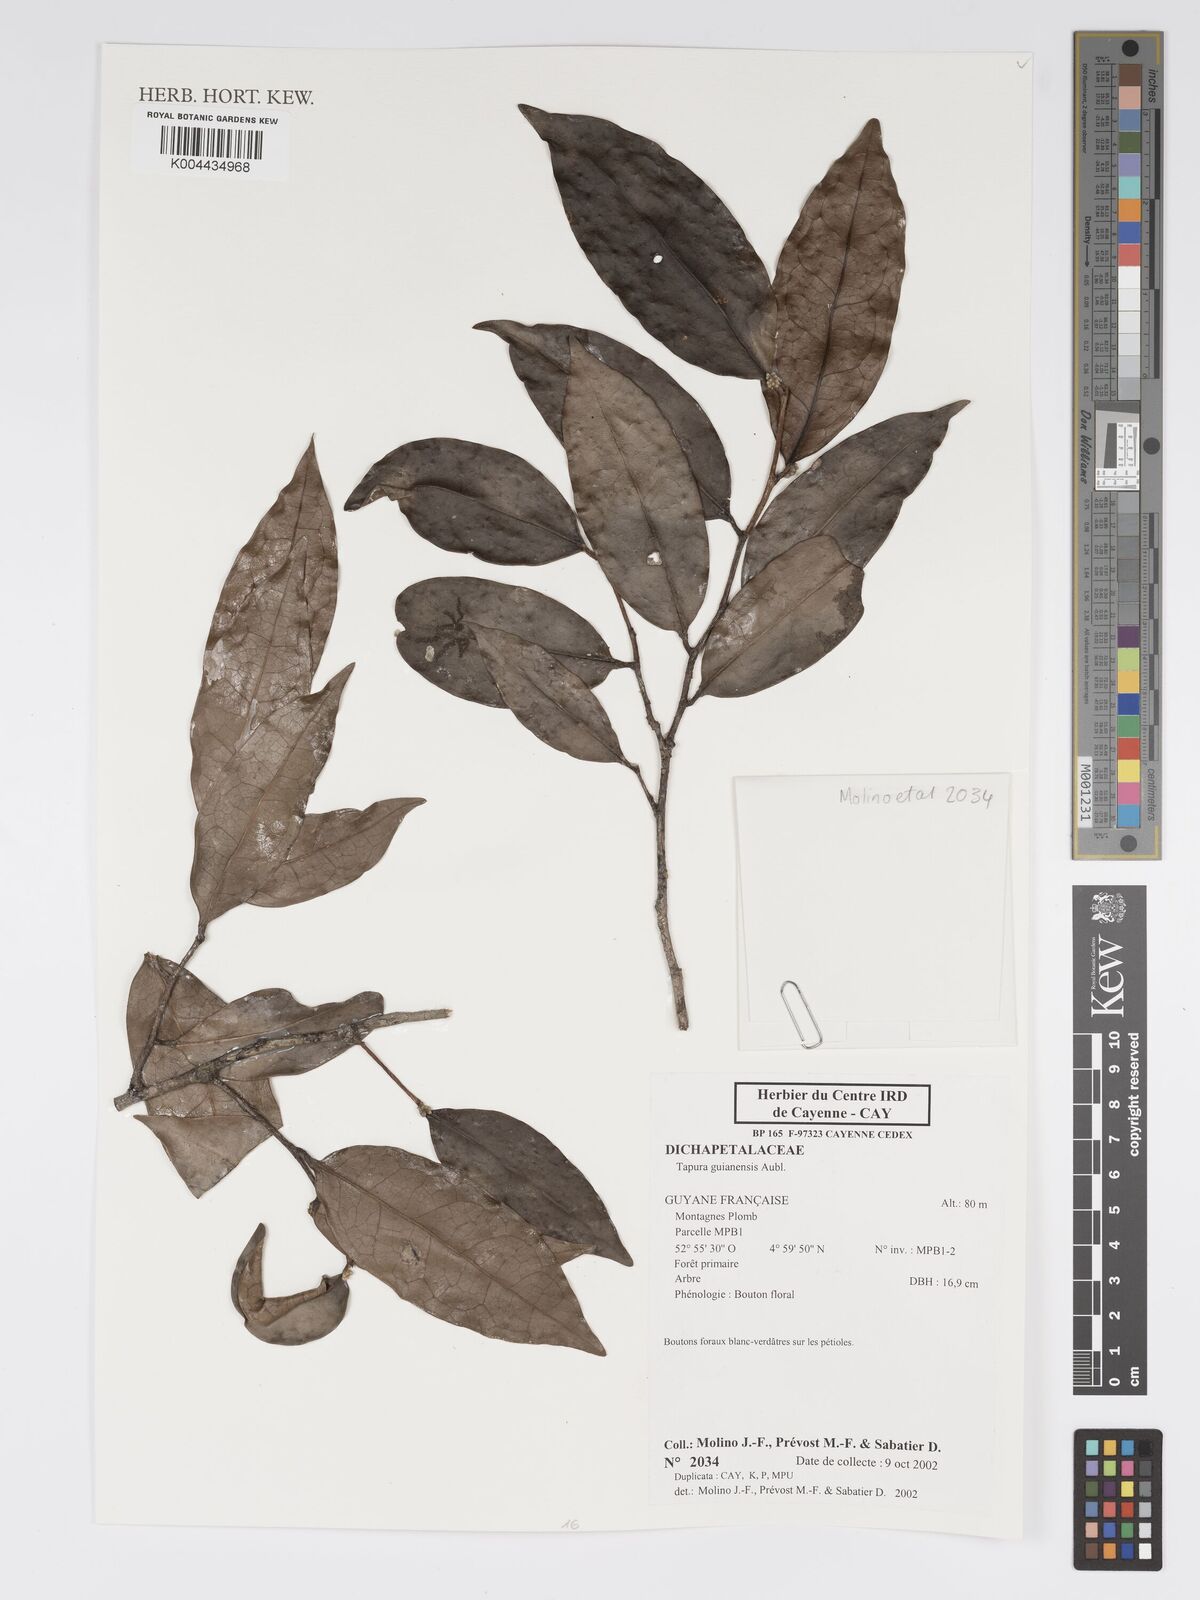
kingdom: Plantae
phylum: Tracheophyta
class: Magnoliopsida
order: Malpighiales
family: Dichapetalaceae
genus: Tapura
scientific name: Tapura guianensis
